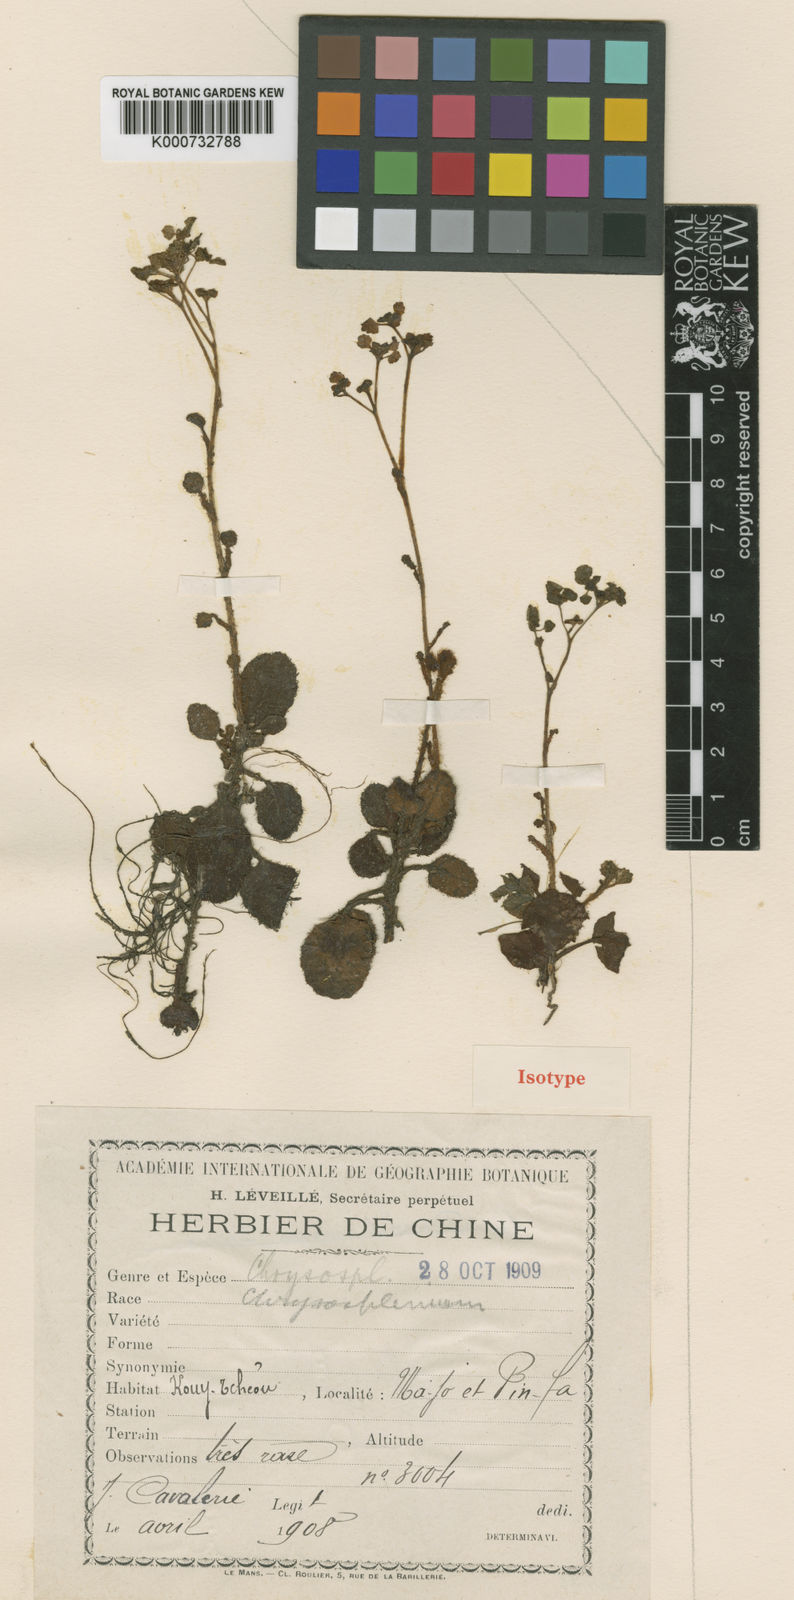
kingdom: Plantae
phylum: Tracheophyta
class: Magnoliopsida
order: Saxifragales
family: Saxifragaceae
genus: Chrysosplenium
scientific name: Chrysosplenium lanuginosum
